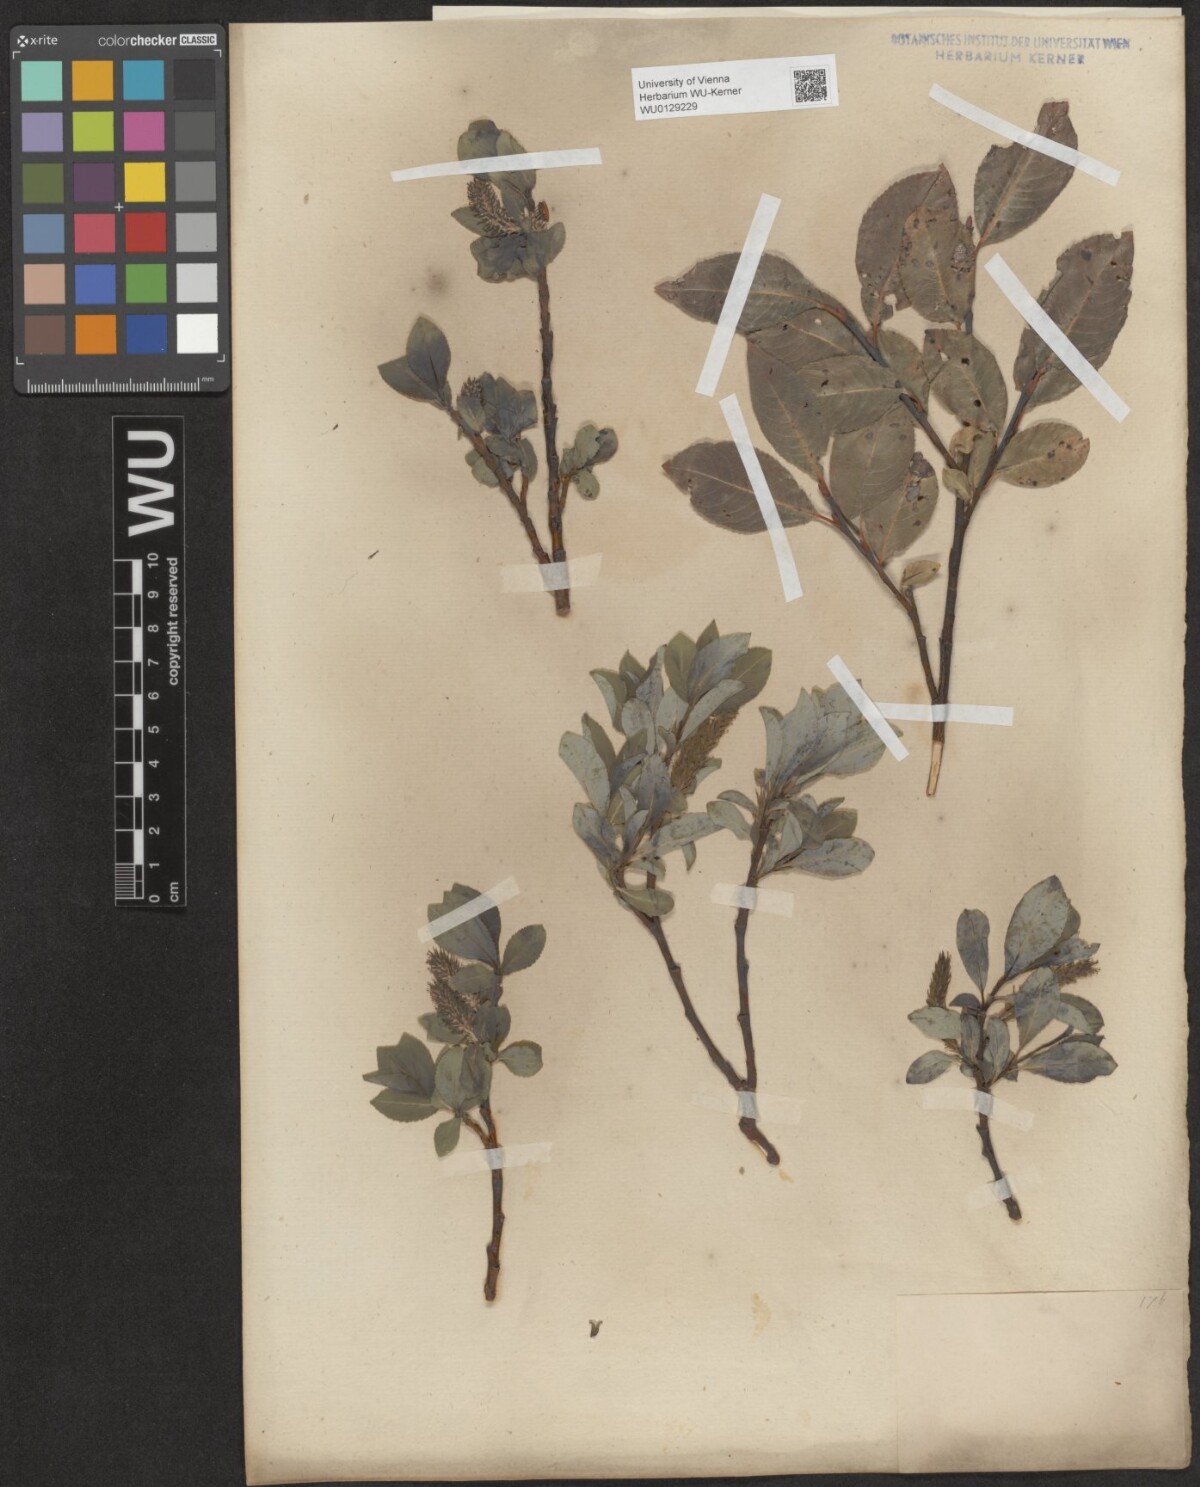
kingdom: Plantae
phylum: Tracheophyta
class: Magnoliopsida
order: Malpighiales
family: Salicaceae
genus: Salix
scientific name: Salix glabra
